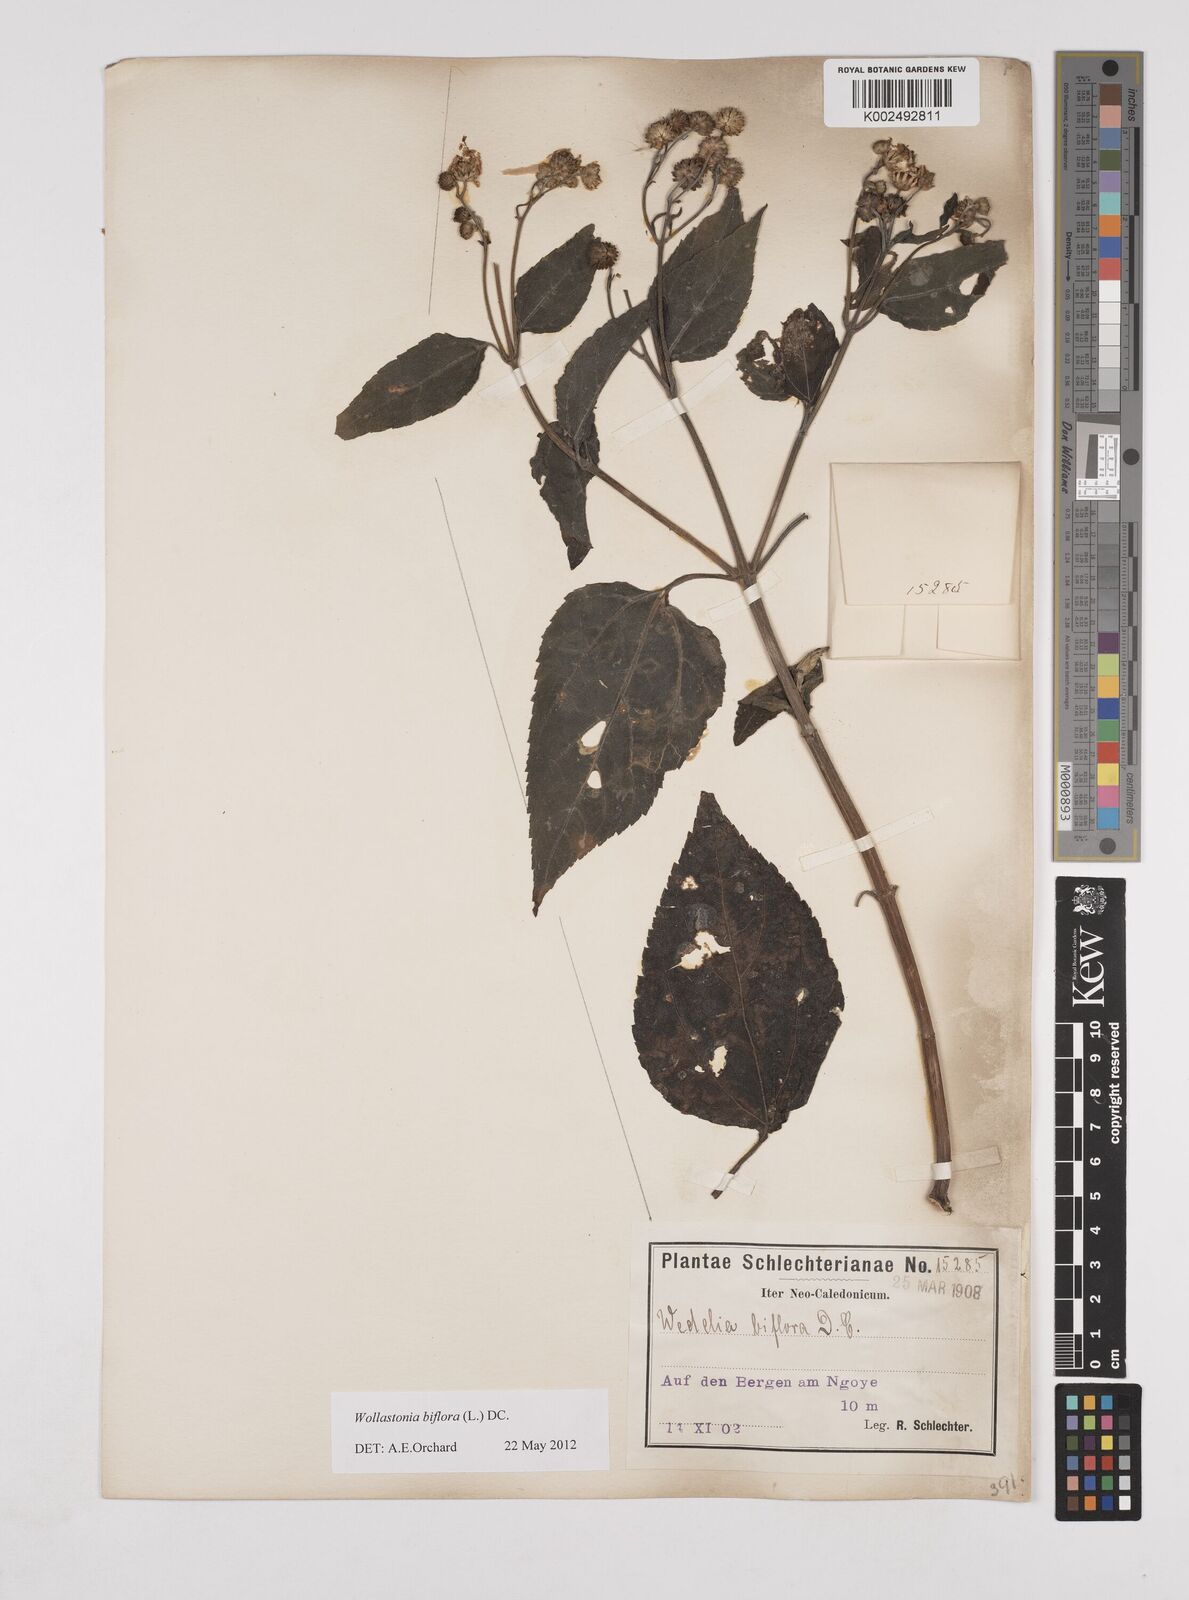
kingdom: Plantae
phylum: Tracheophyta
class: Magnoliopsida
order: Asterales
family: Asteraceae
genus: Wollastonia
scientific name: Wollastonia biflora
